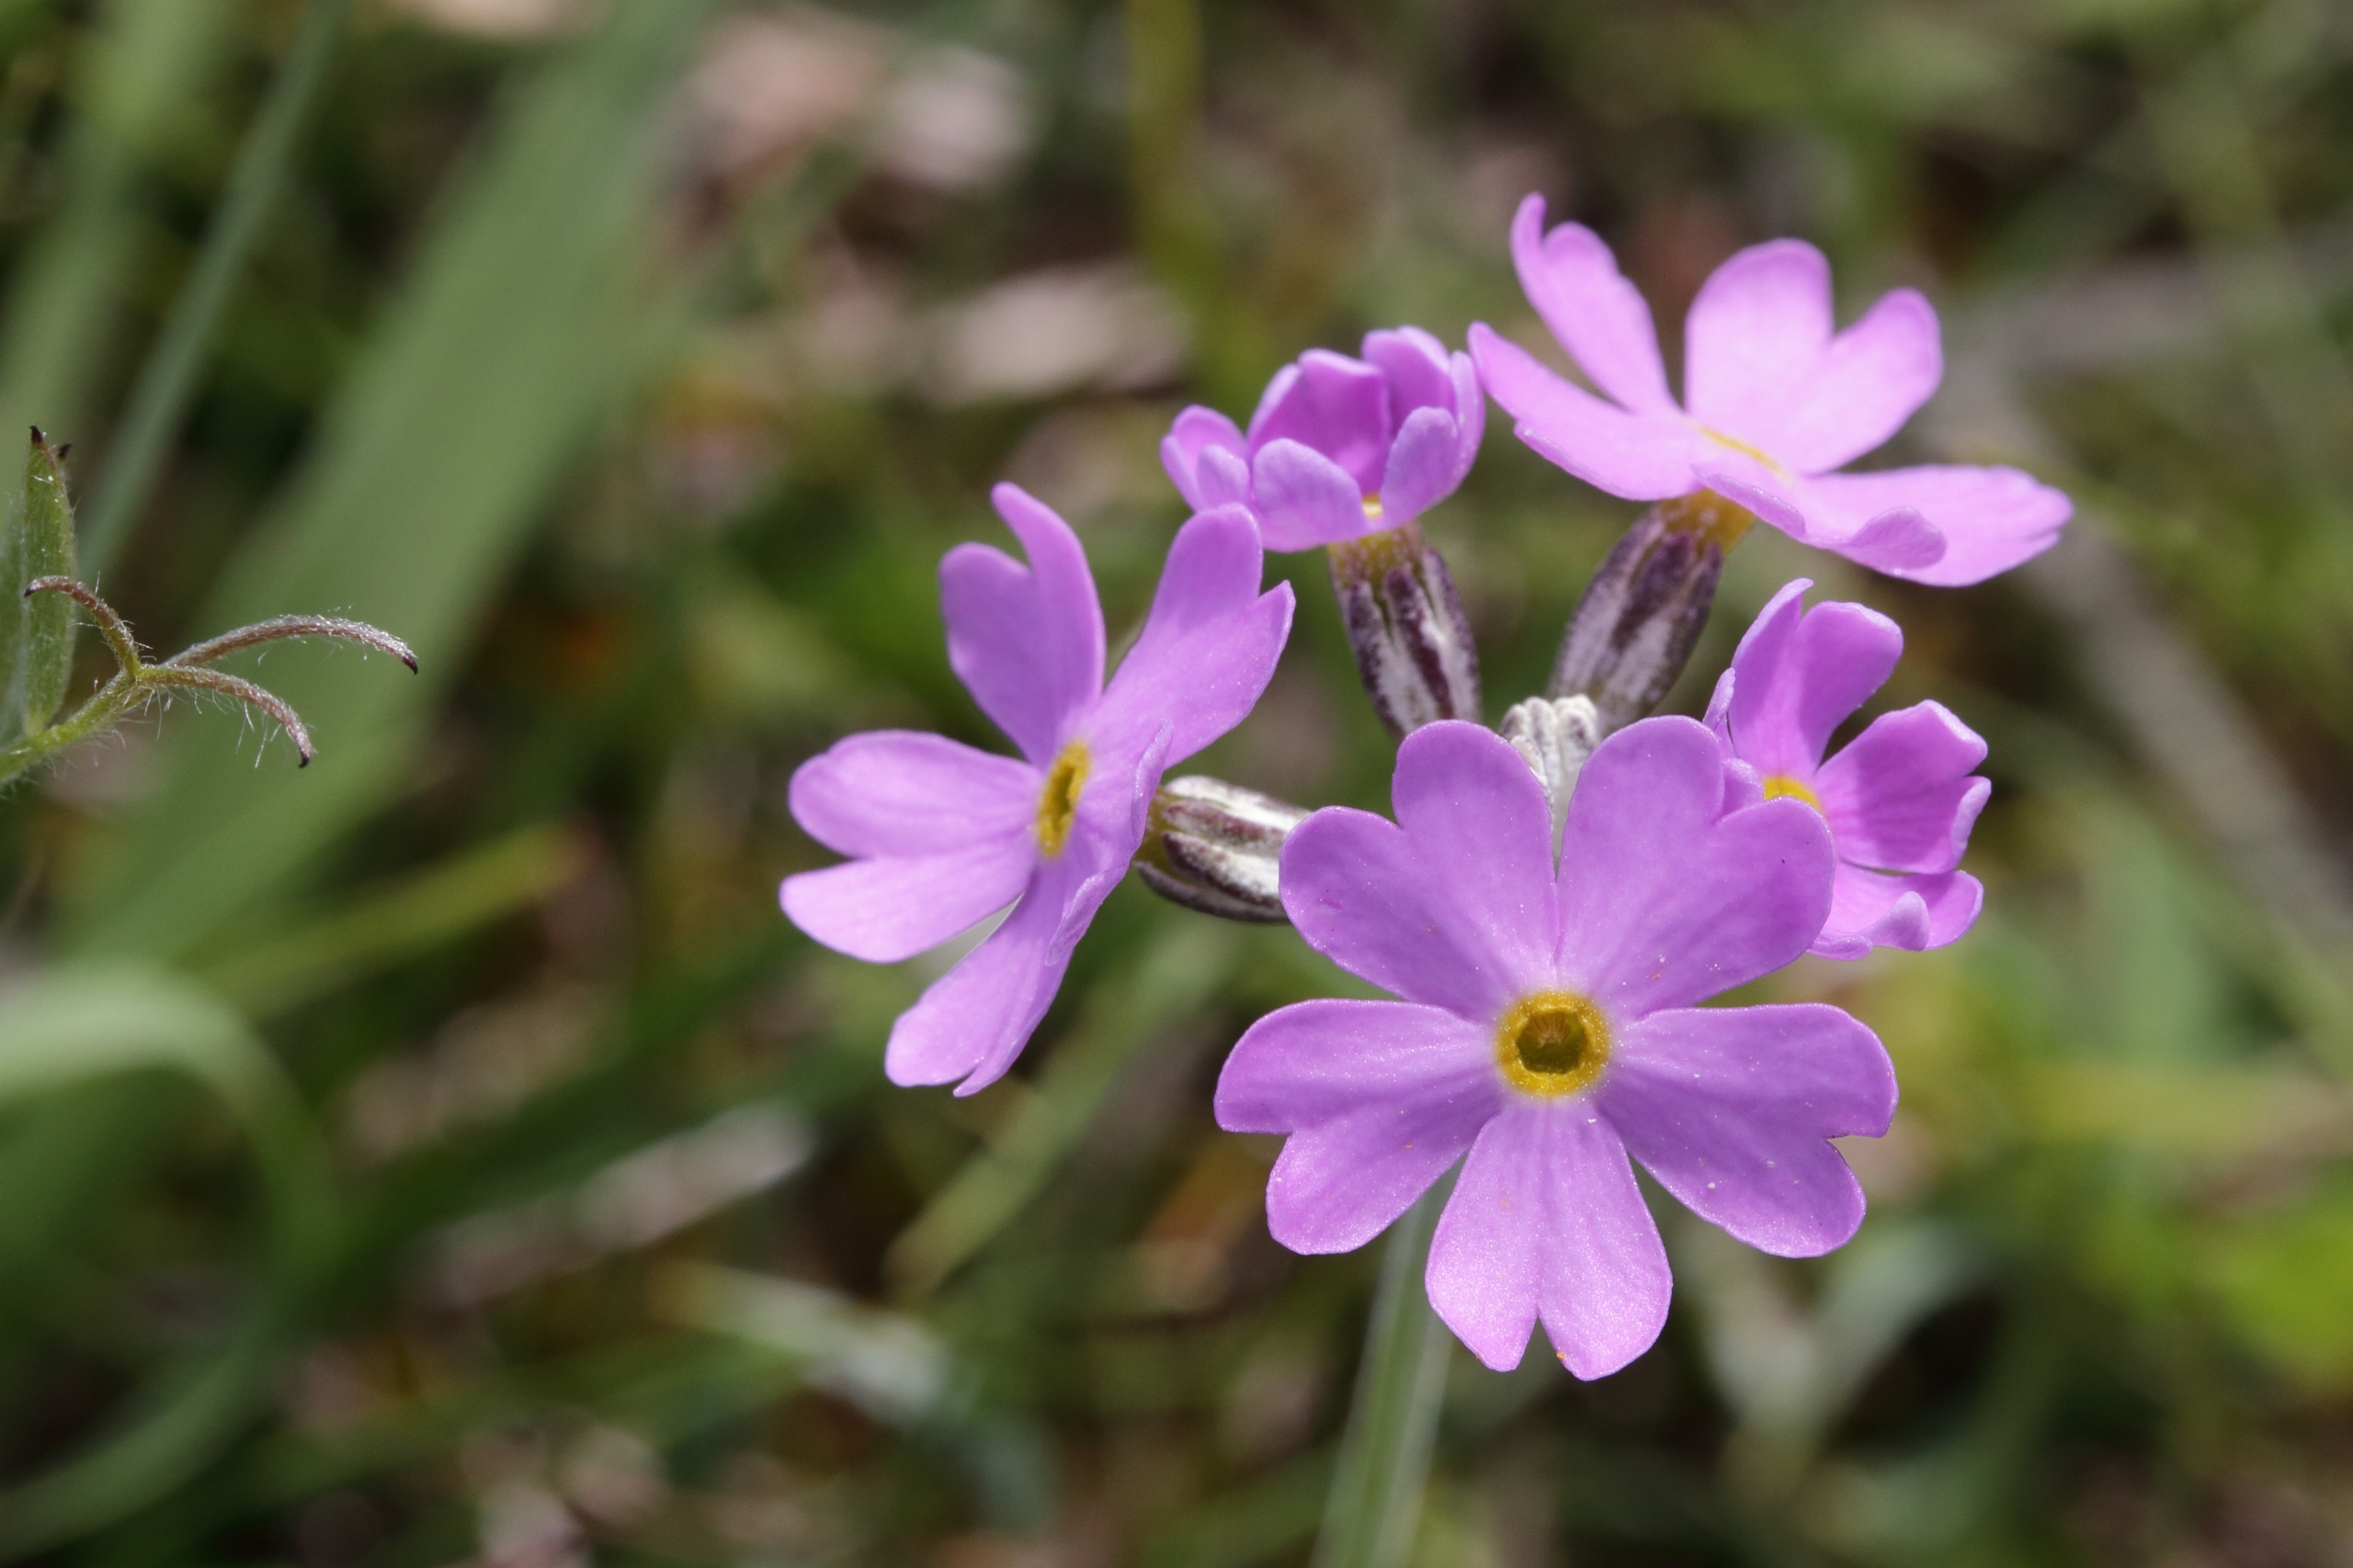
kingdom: Plantae
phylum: Tracheophyta
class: Magnoliopsida
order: Ericales
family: Primulaceae
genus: Primula
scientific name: Primula farinosa
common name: Melet kodriver
